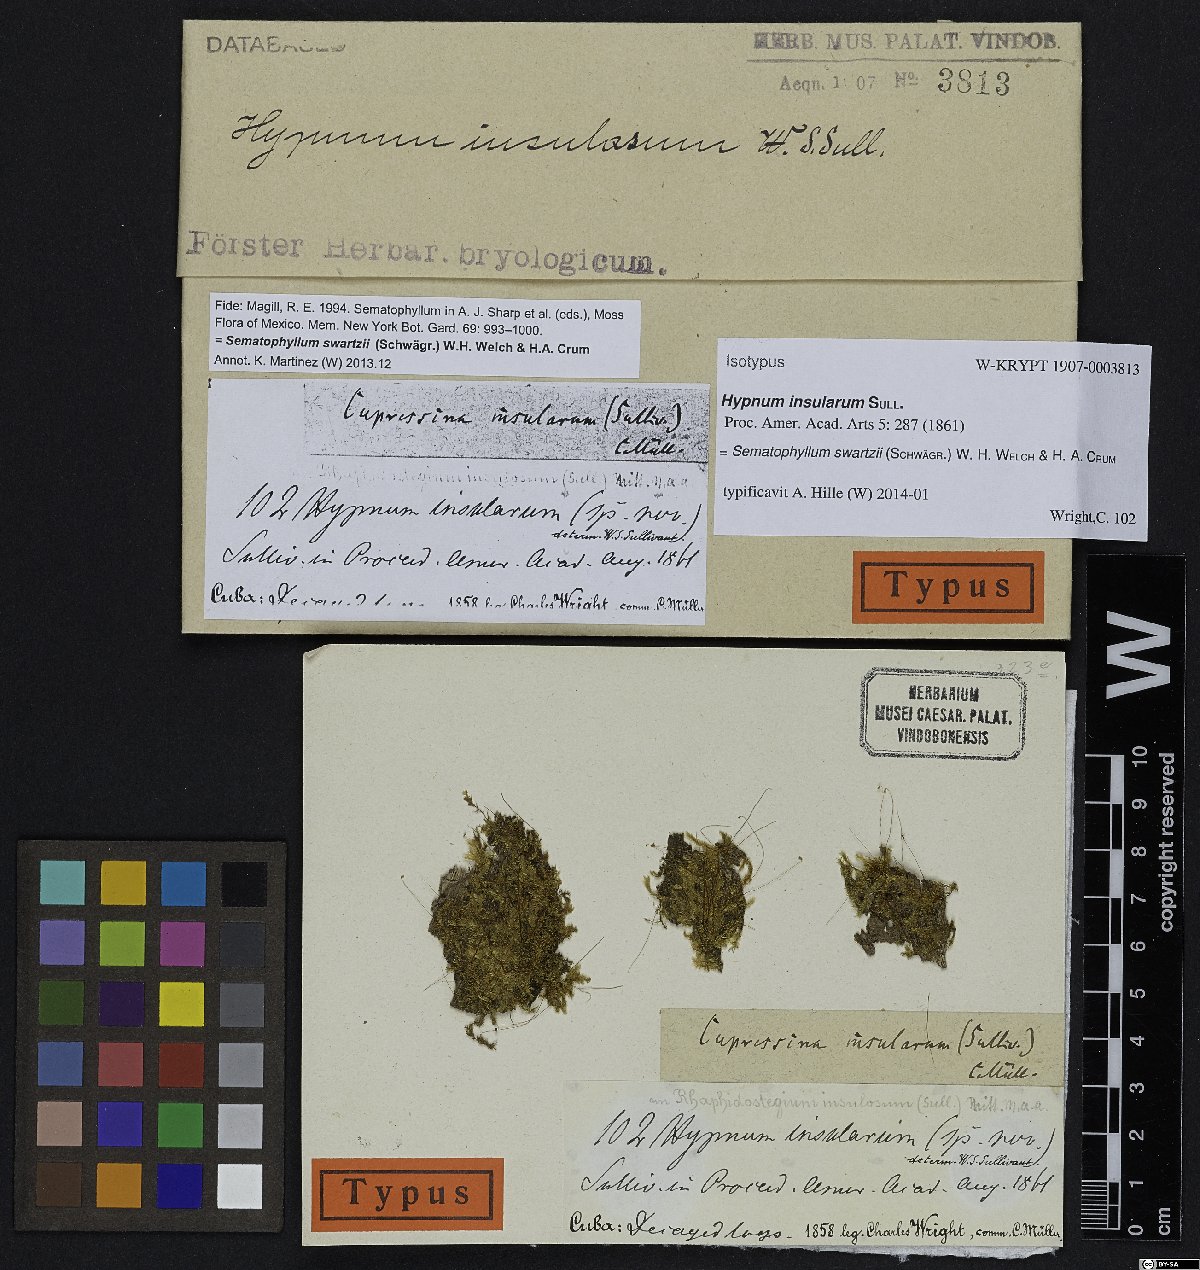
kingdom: Plantae
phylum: Bryophyta
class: Bryopsida
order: Hypnales
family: Sematophyllaceae
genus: Sematophyllum
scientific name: Sematophyllum swartzii
